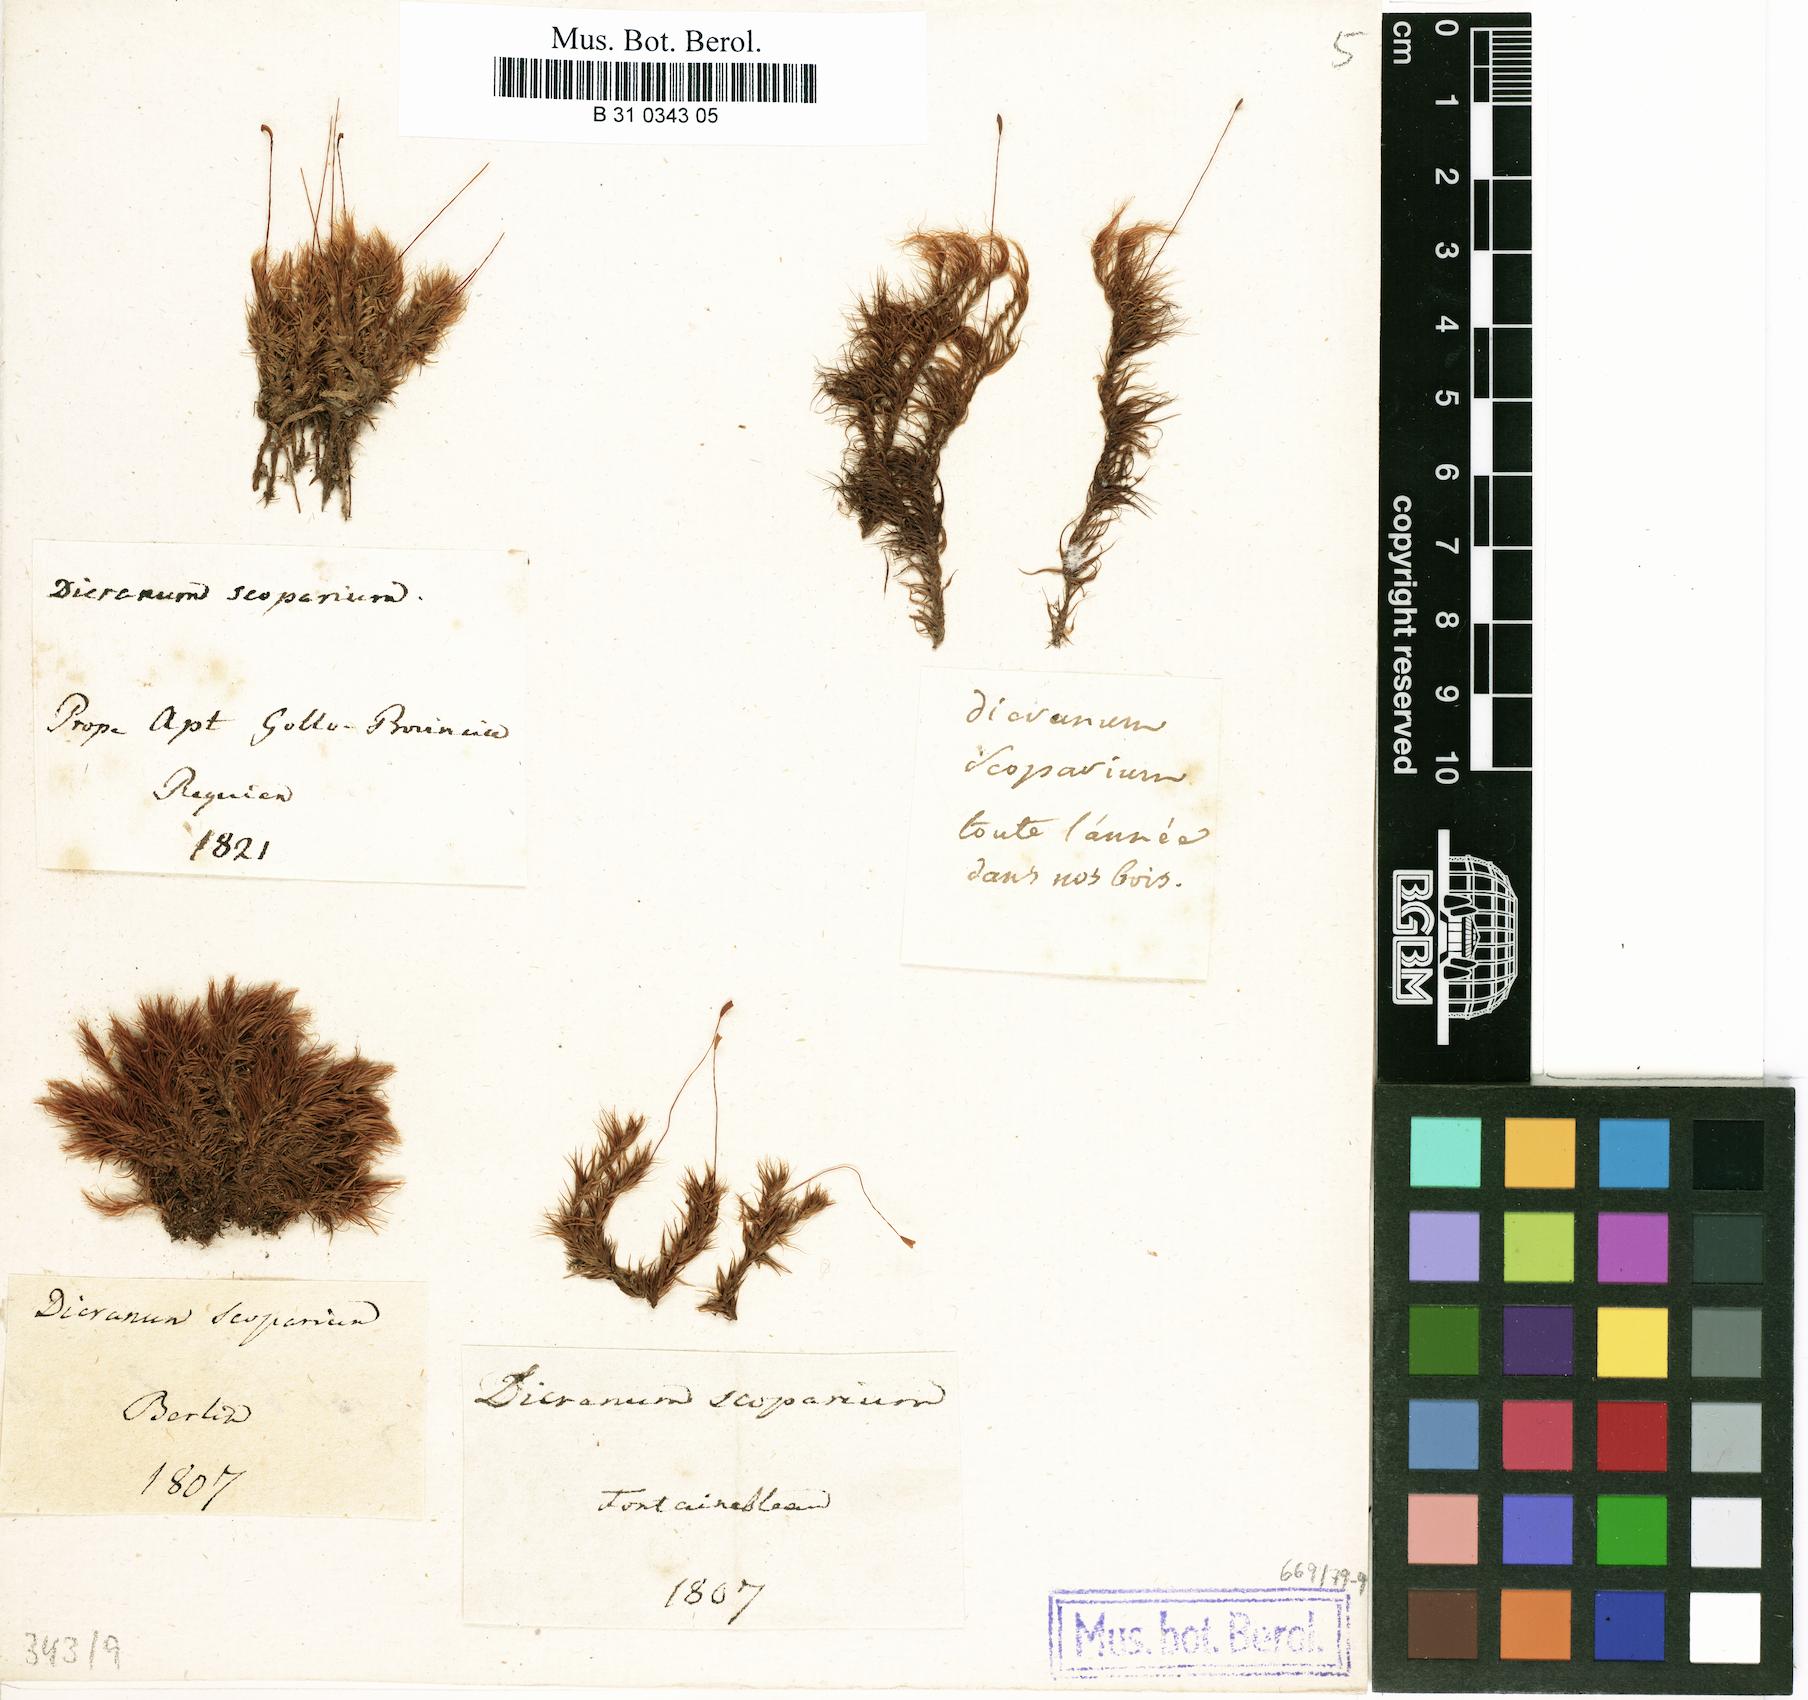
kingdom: Plantae
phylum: Bryophyta
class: Bryopsida
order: Dicranales
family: Dicranaceae
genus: Dicranum
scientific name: Dicranum scoparium
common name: Broom fork-moss
